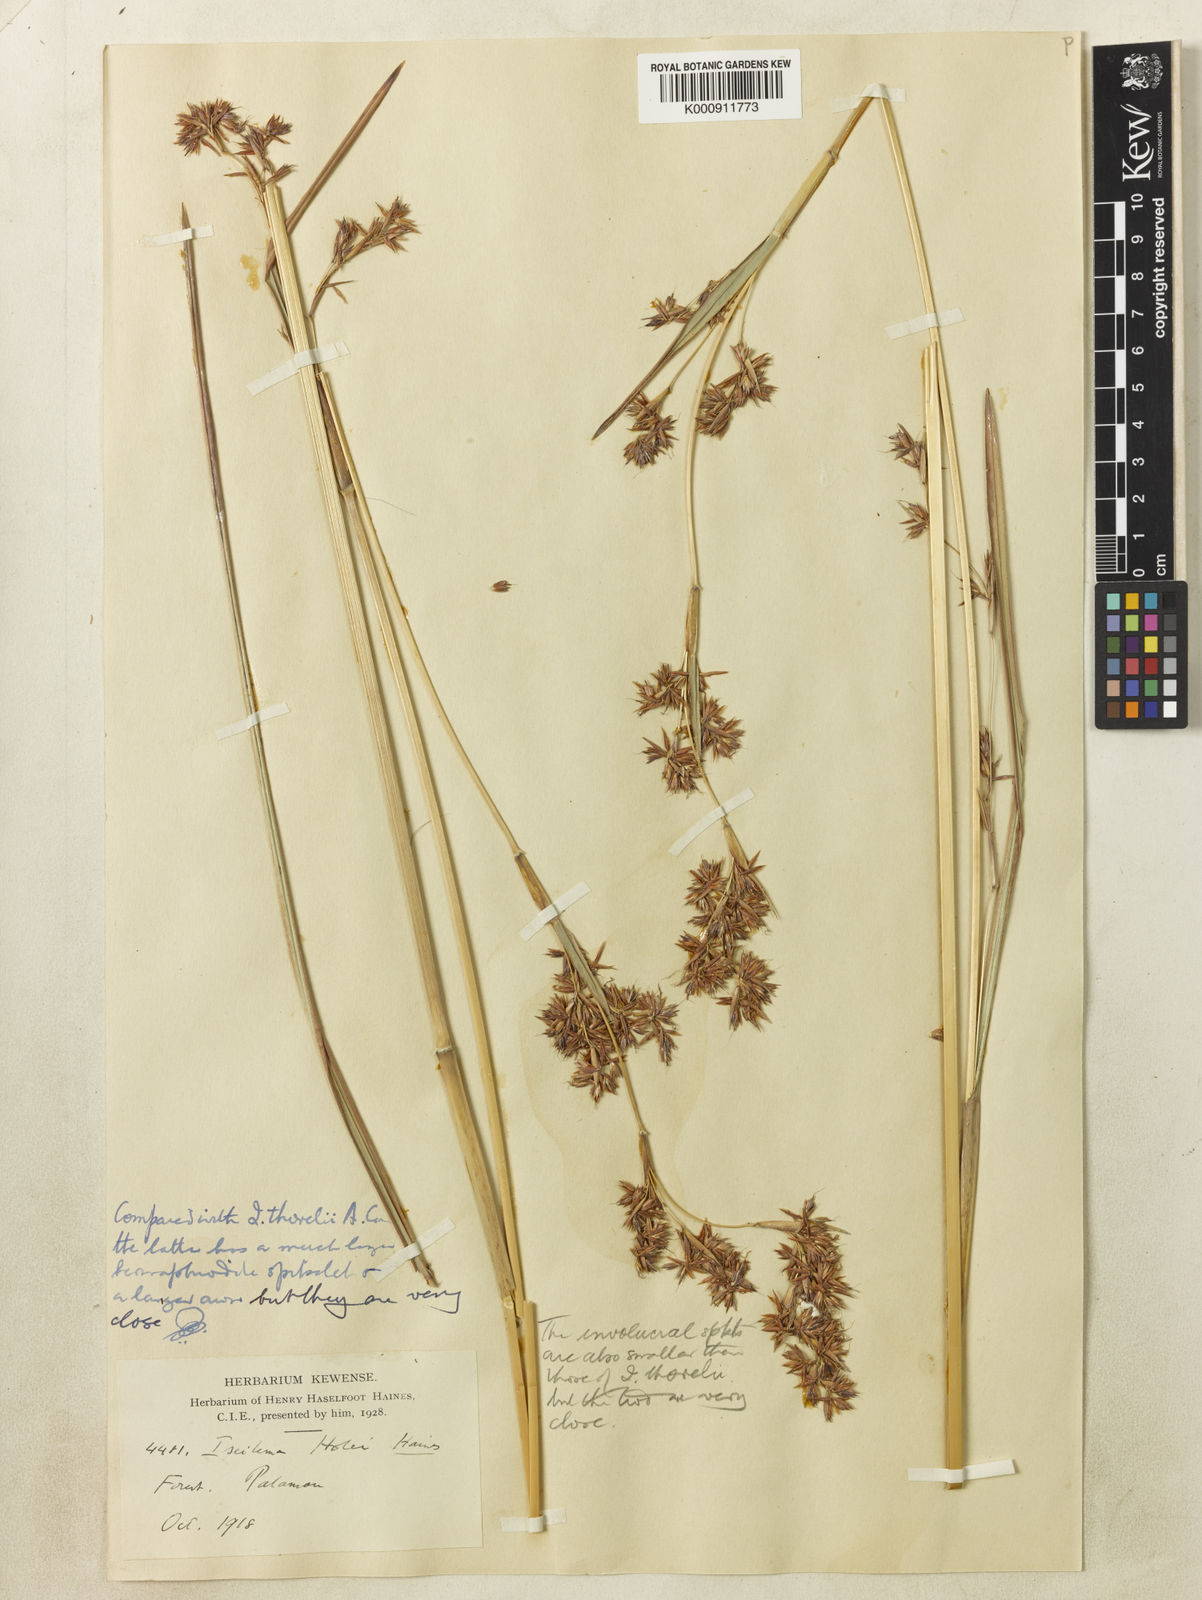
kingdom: Plantae
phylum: Tracheophyta
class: Liliopsida
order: Poales
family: Poaceae
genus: Iseilema
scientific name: Iseilema holei
